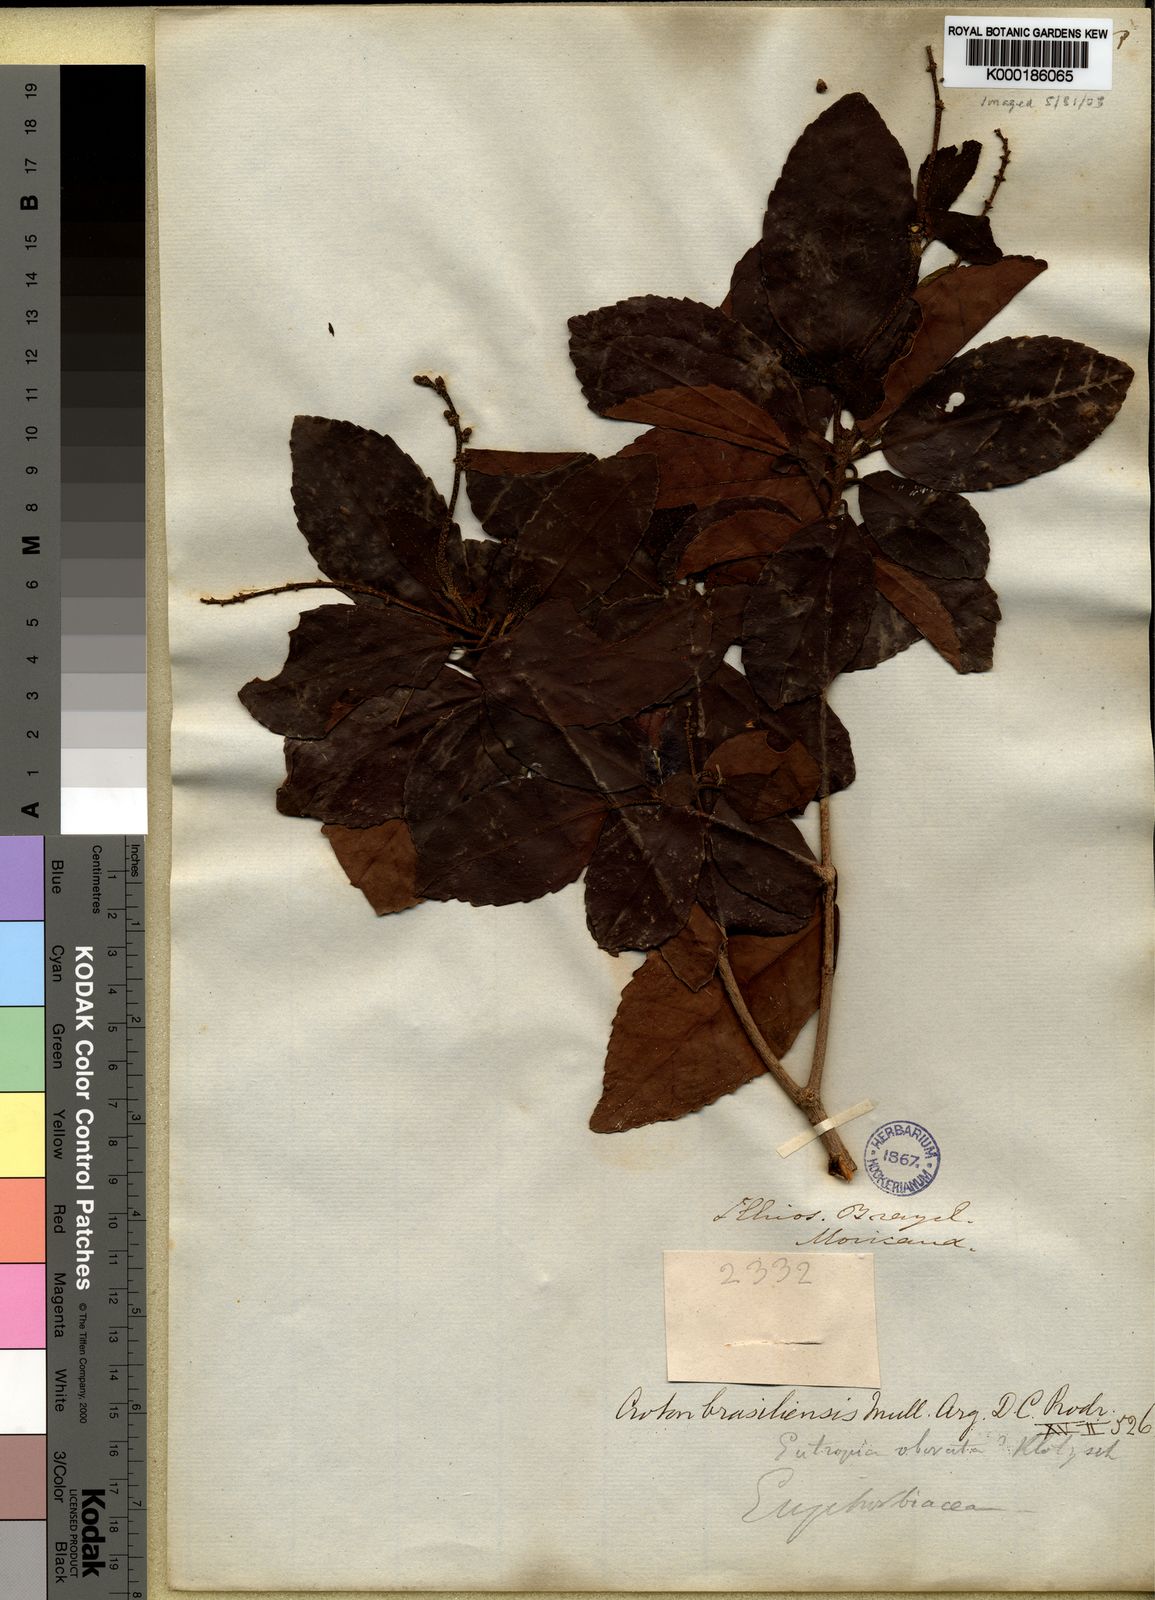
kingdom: Plantae
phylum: Tracheophyta
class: Magnoliopsida
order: Malpighiales
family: Euphorbiaceae
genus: Croton
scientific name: Croton
